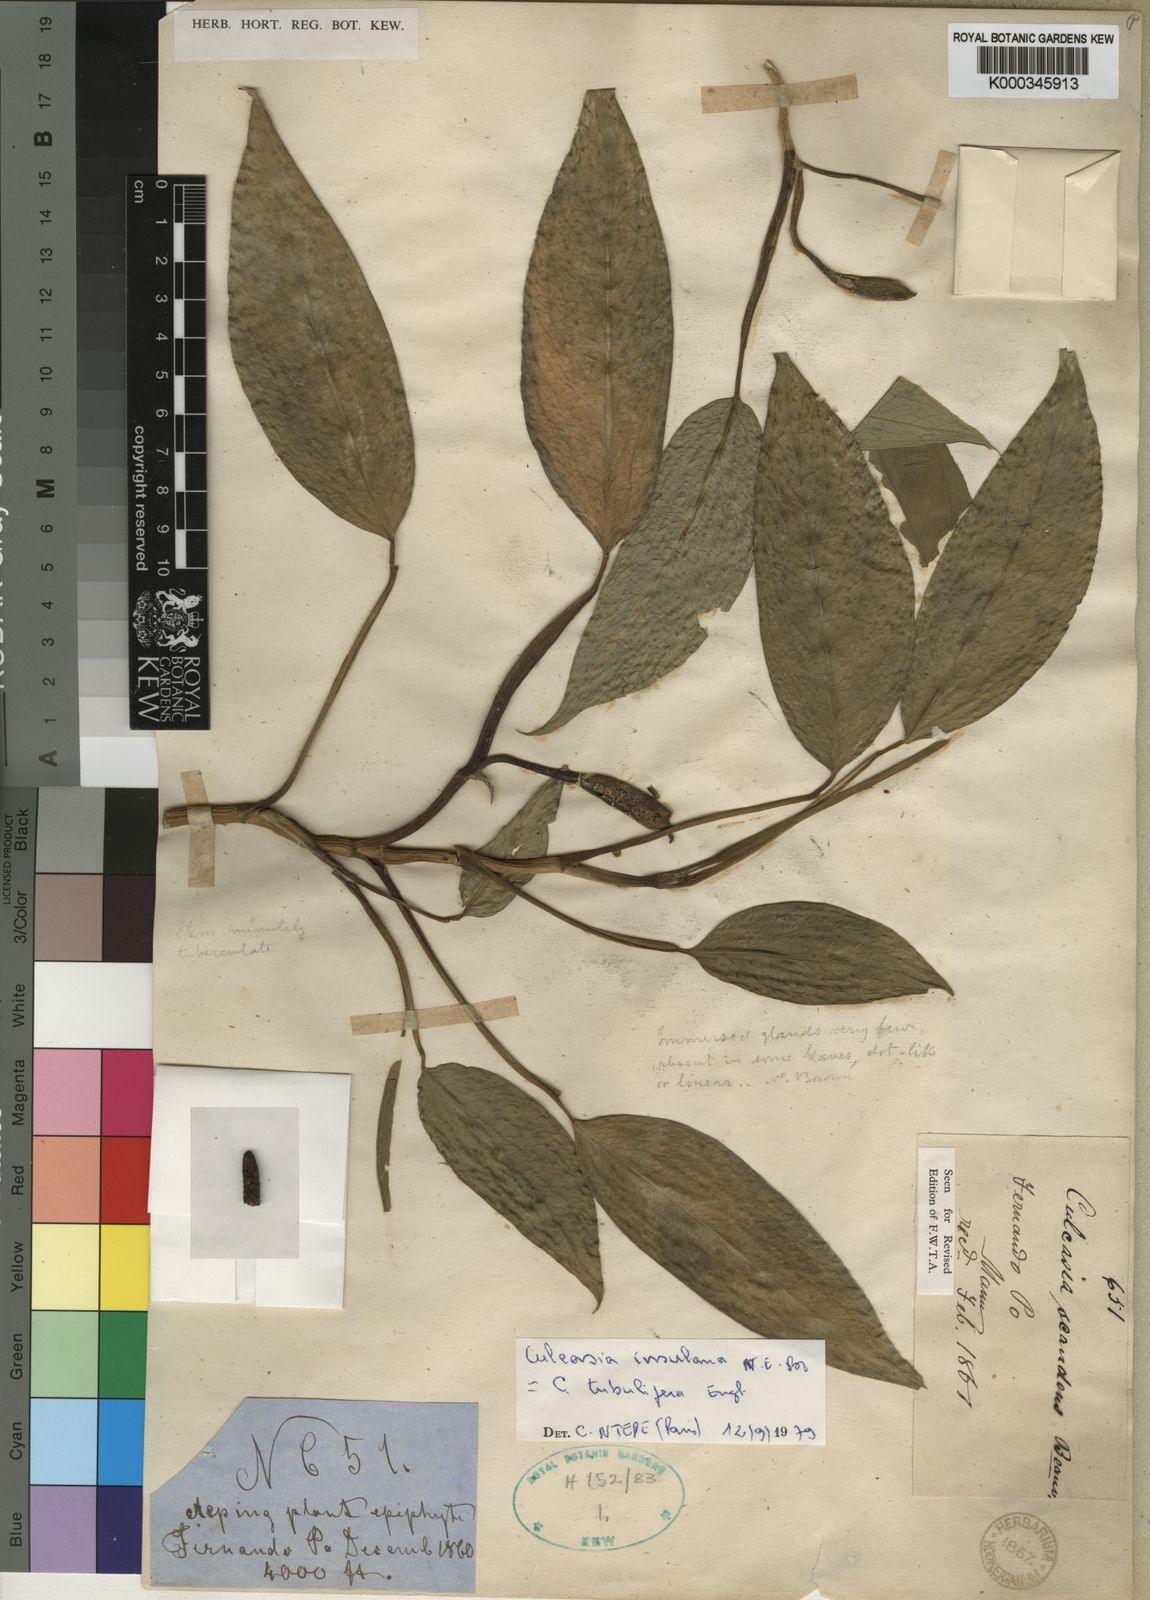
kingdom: Plantae
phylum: Tracheophyta
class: Liliopsida
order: Alismatales
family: Araceae
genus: Culcasia
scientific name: Culcasia insulana
